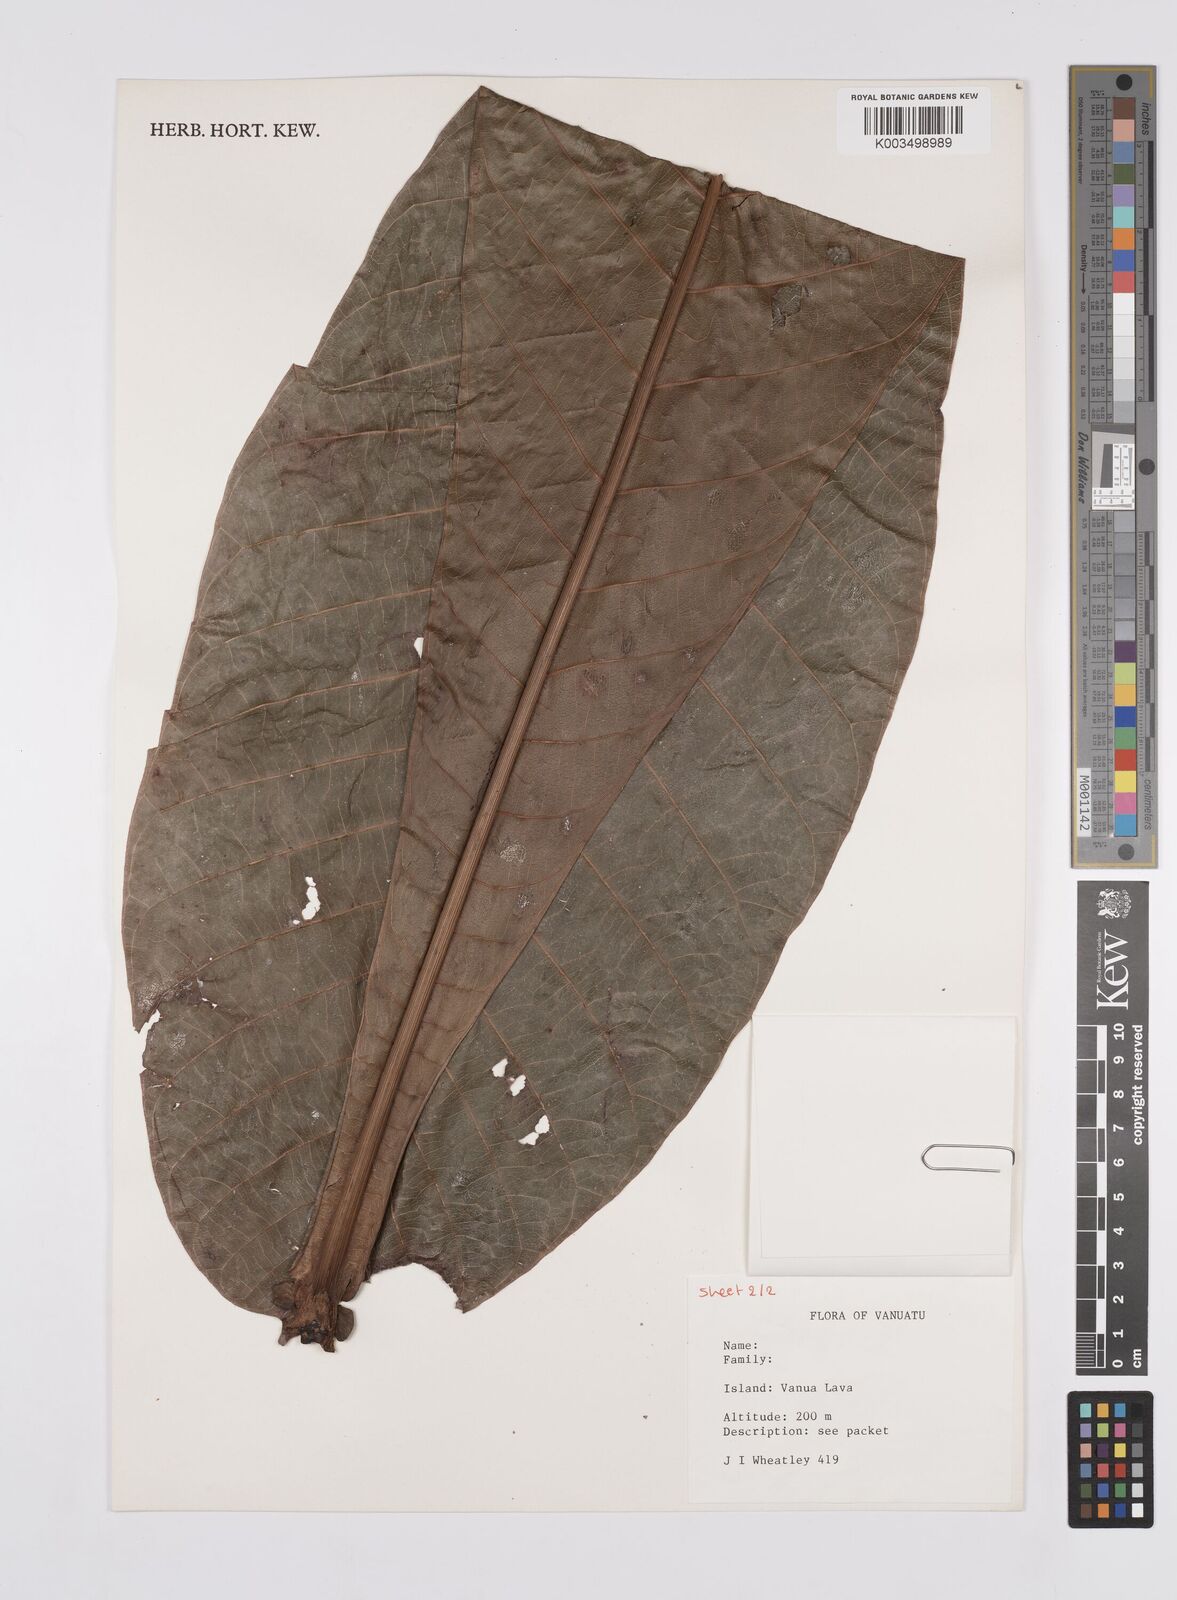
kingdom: Plantae
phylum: Tracheophyta
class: Magnoliopsida
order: Sapindales
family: Anacardiaceae
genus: Campnosperma
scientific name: Campnosperma
